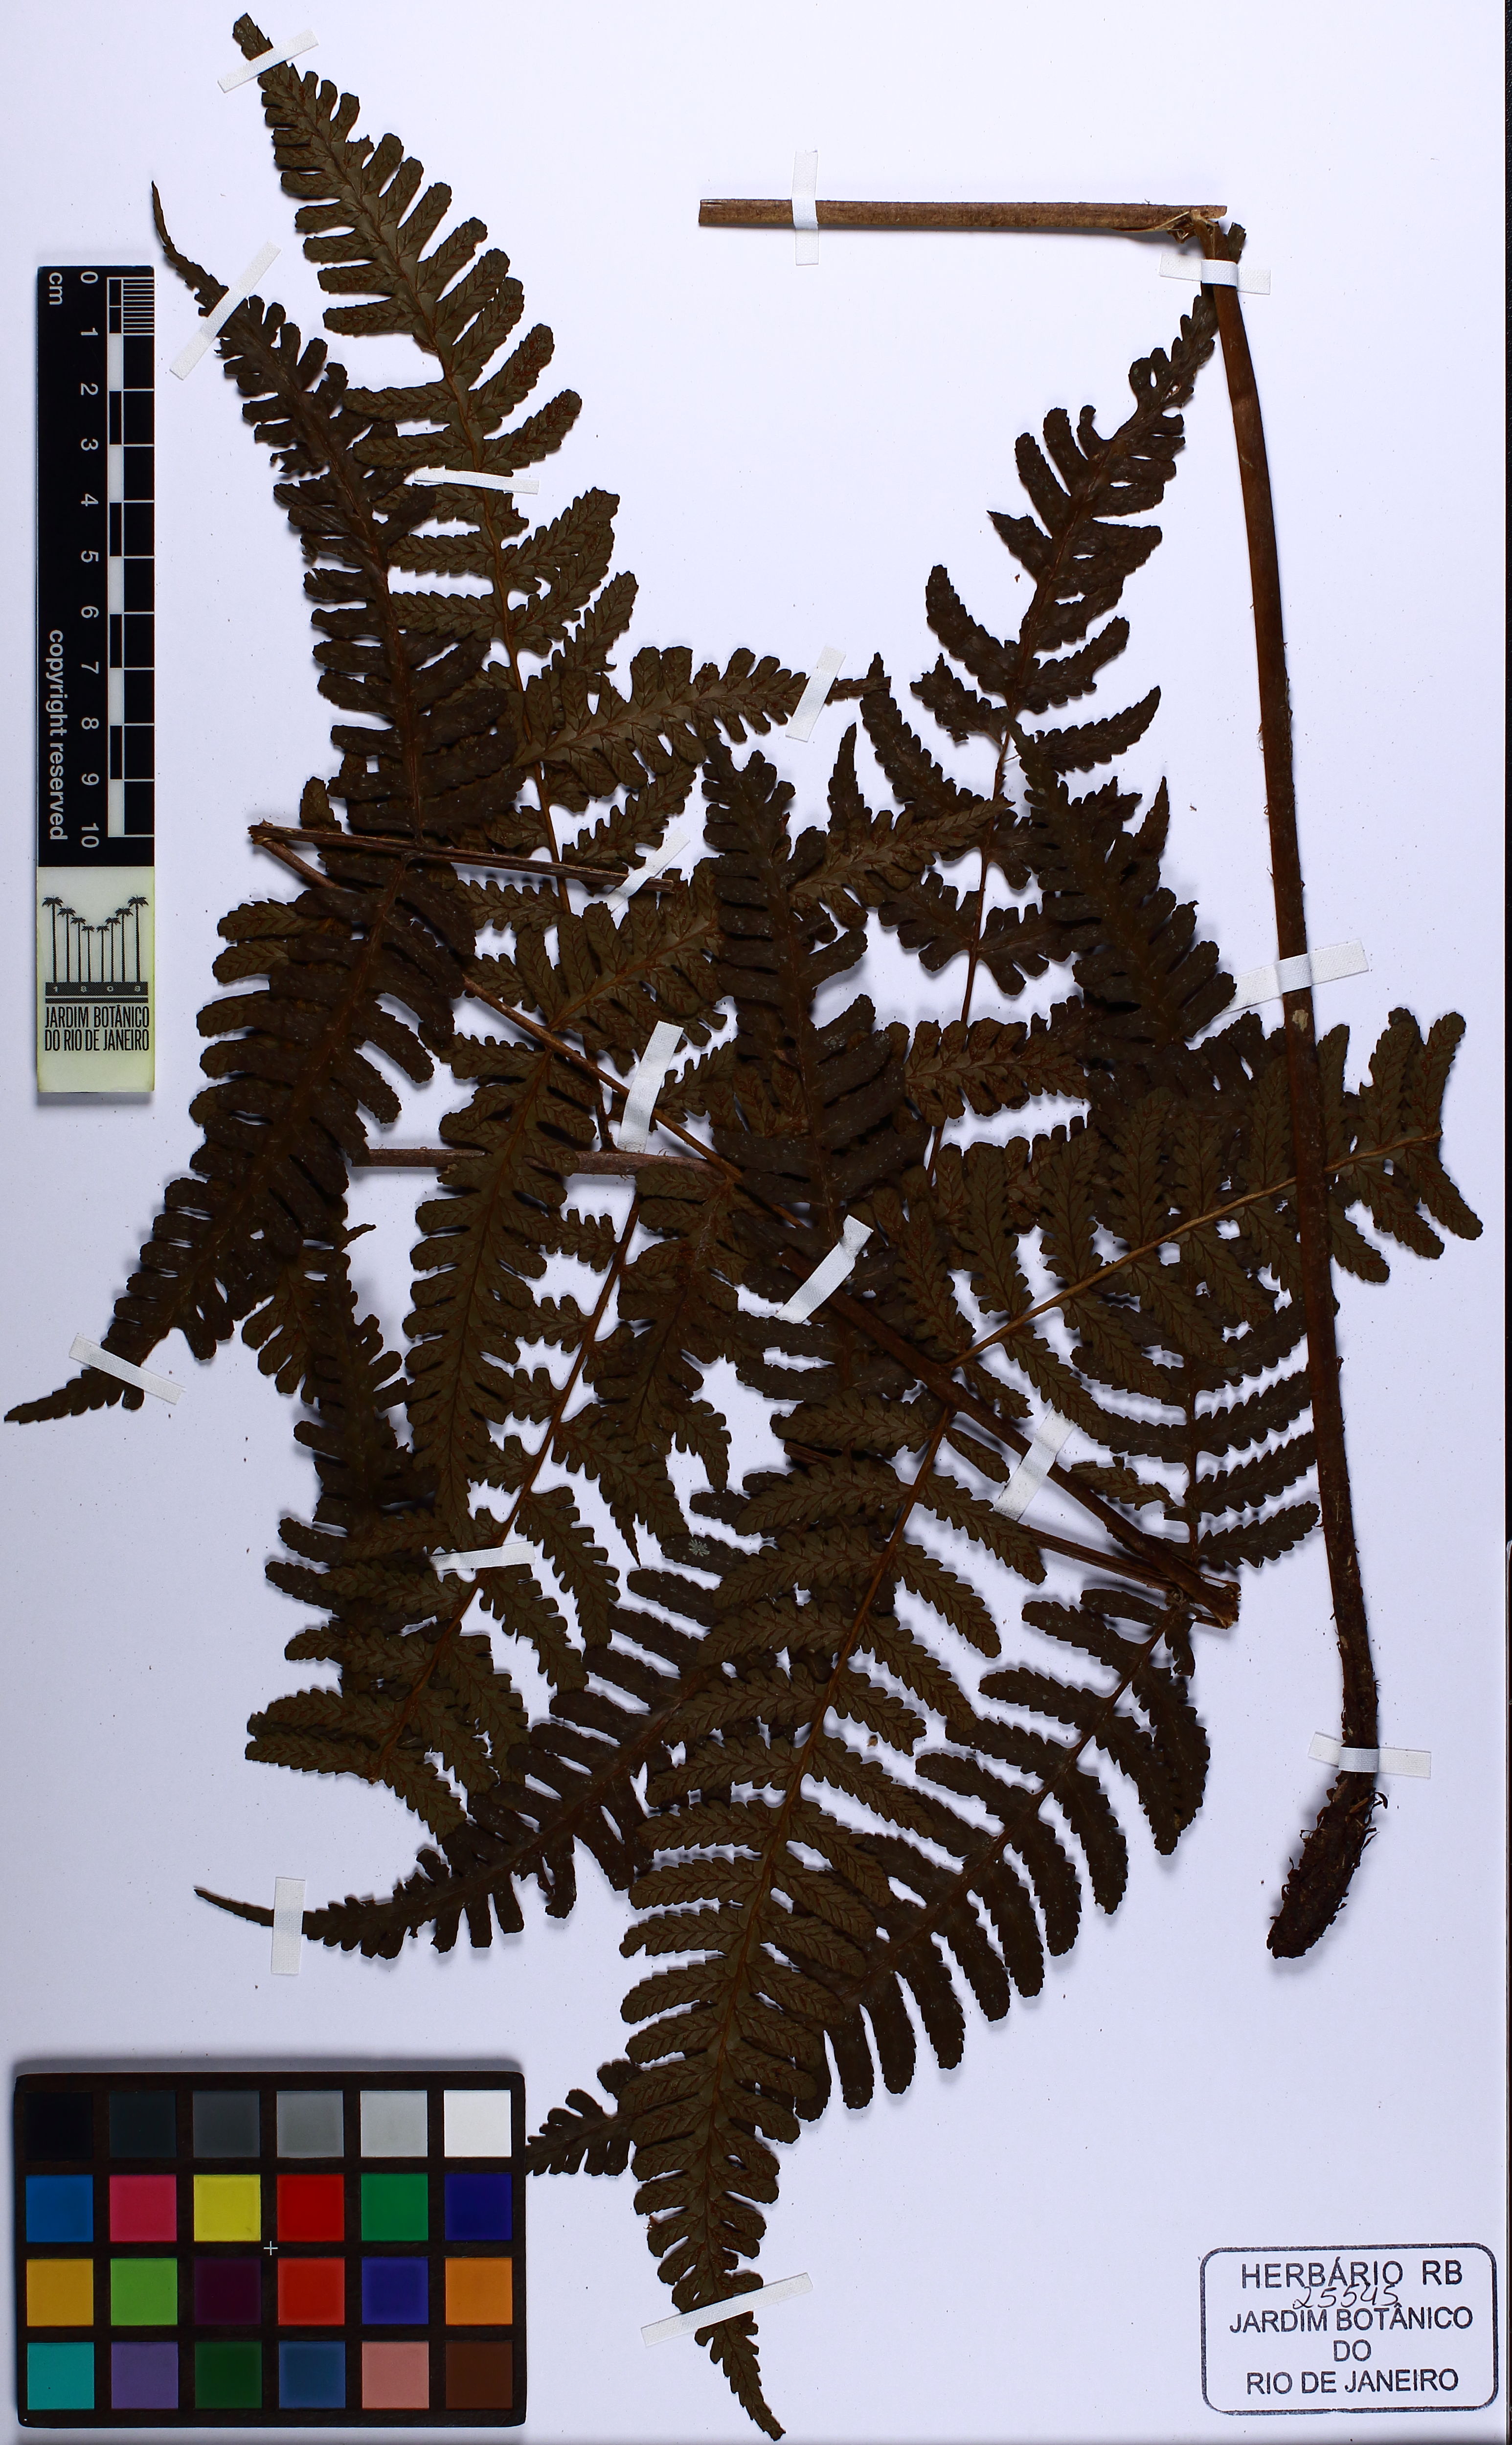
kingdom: Plantae
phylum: Tracheophyta
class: Polypodiopsida
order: Polypodiales
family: Athyriaceae
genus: Diplazium
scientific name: Diplazium leptocarpon
